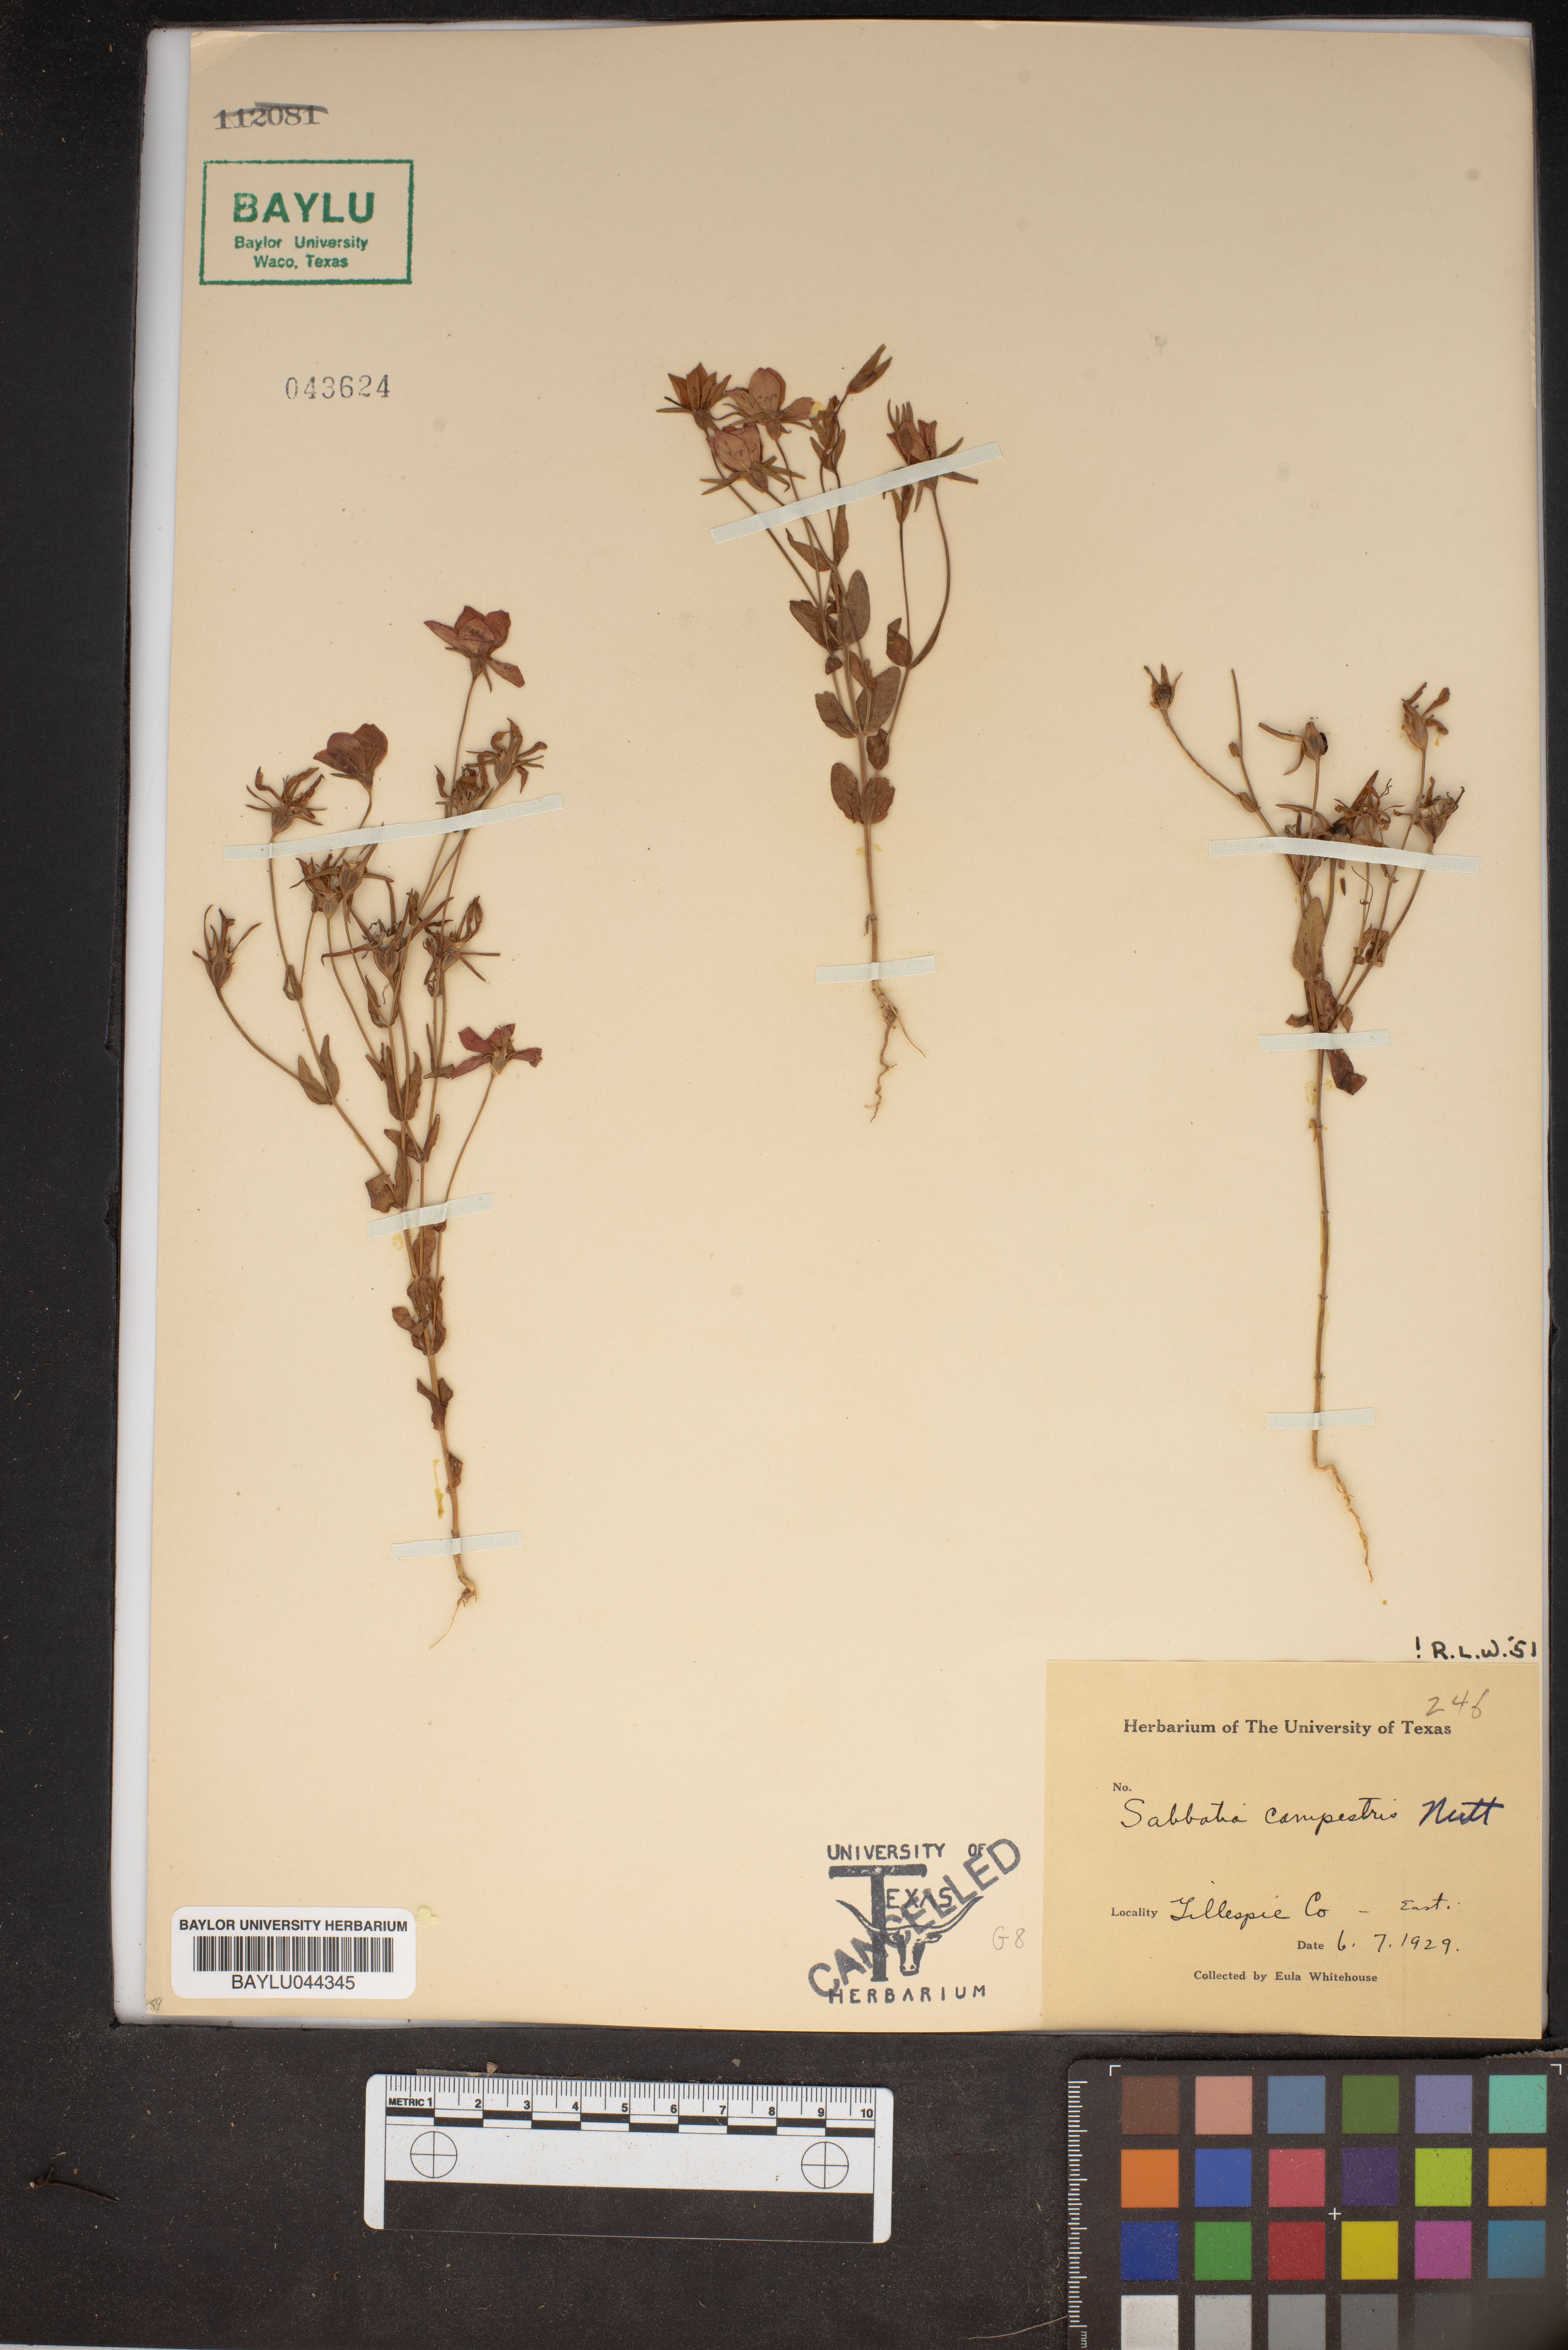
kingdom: Plantae
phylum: Tracheophyta
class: Magnoliopsida
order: Gentianales
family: Gentianaceae
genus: Sabatia
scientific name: Sabatia campestris
